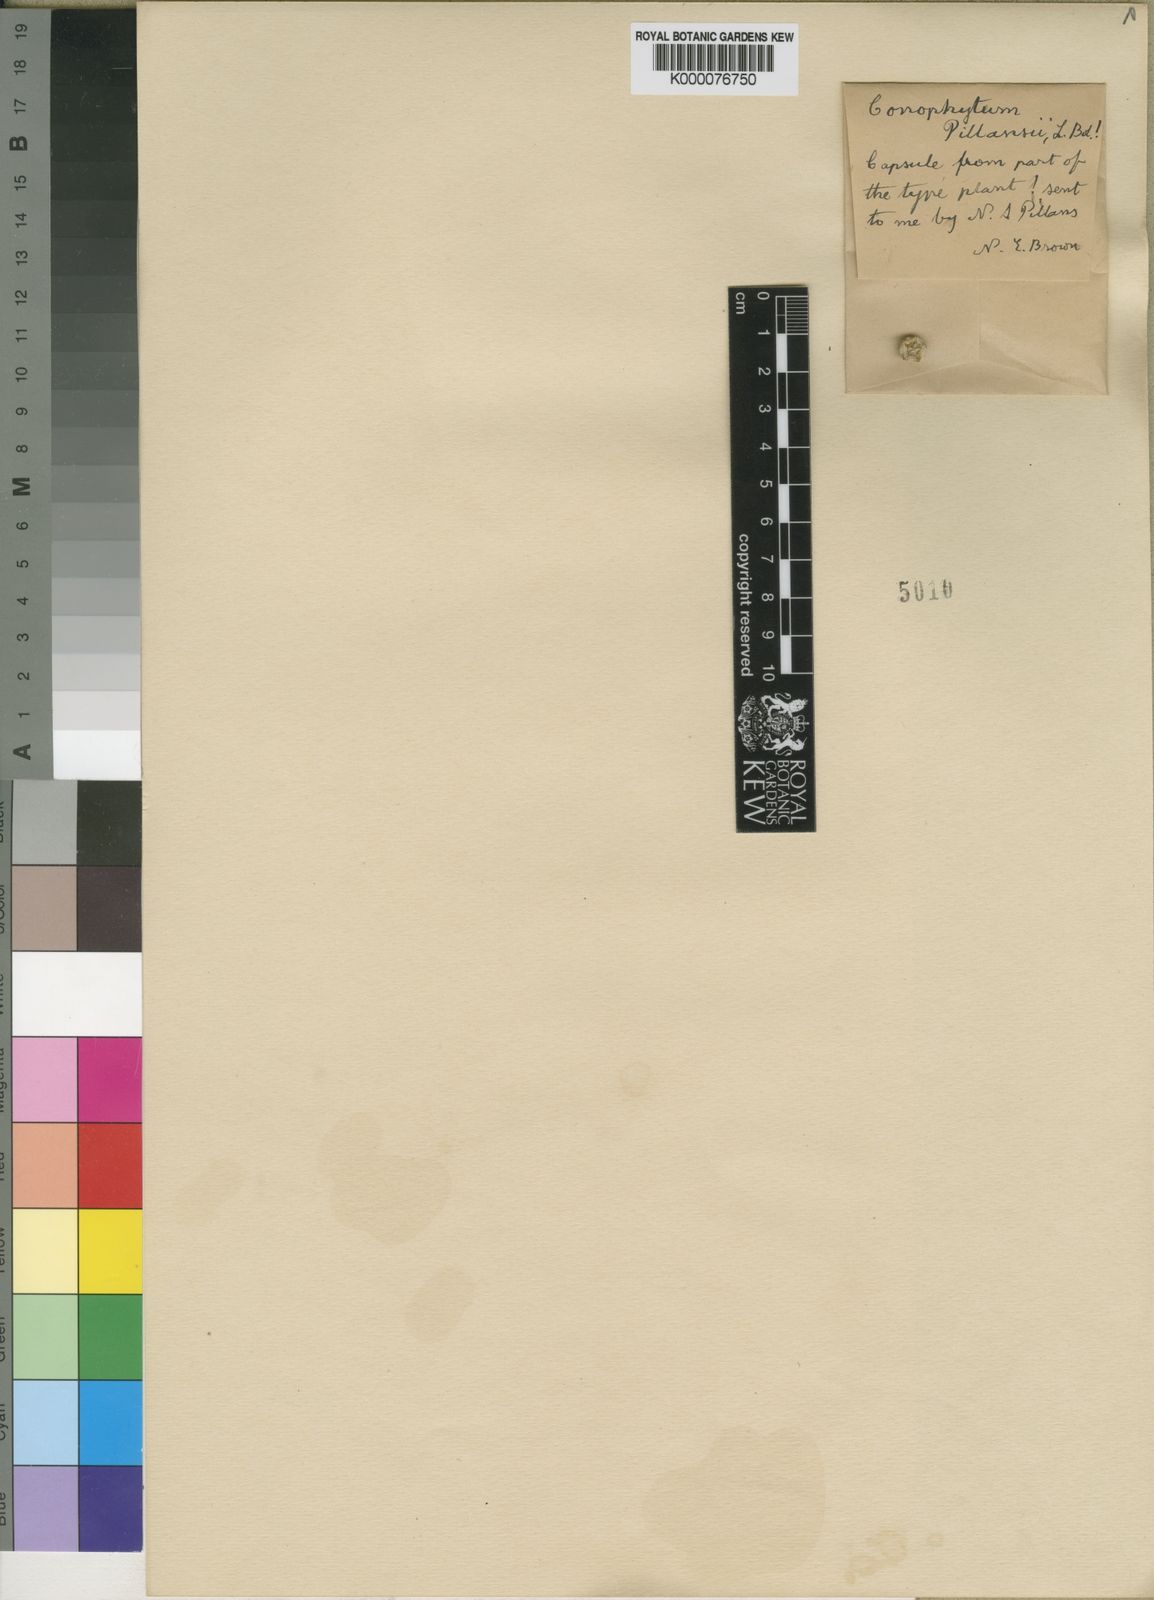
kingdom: Plantae
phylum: Tracheophyta
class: Magnoliopsida
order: Caryophyllales
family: Aizoaceae
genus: Conophytum
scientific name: Conophytum subfenestratum
